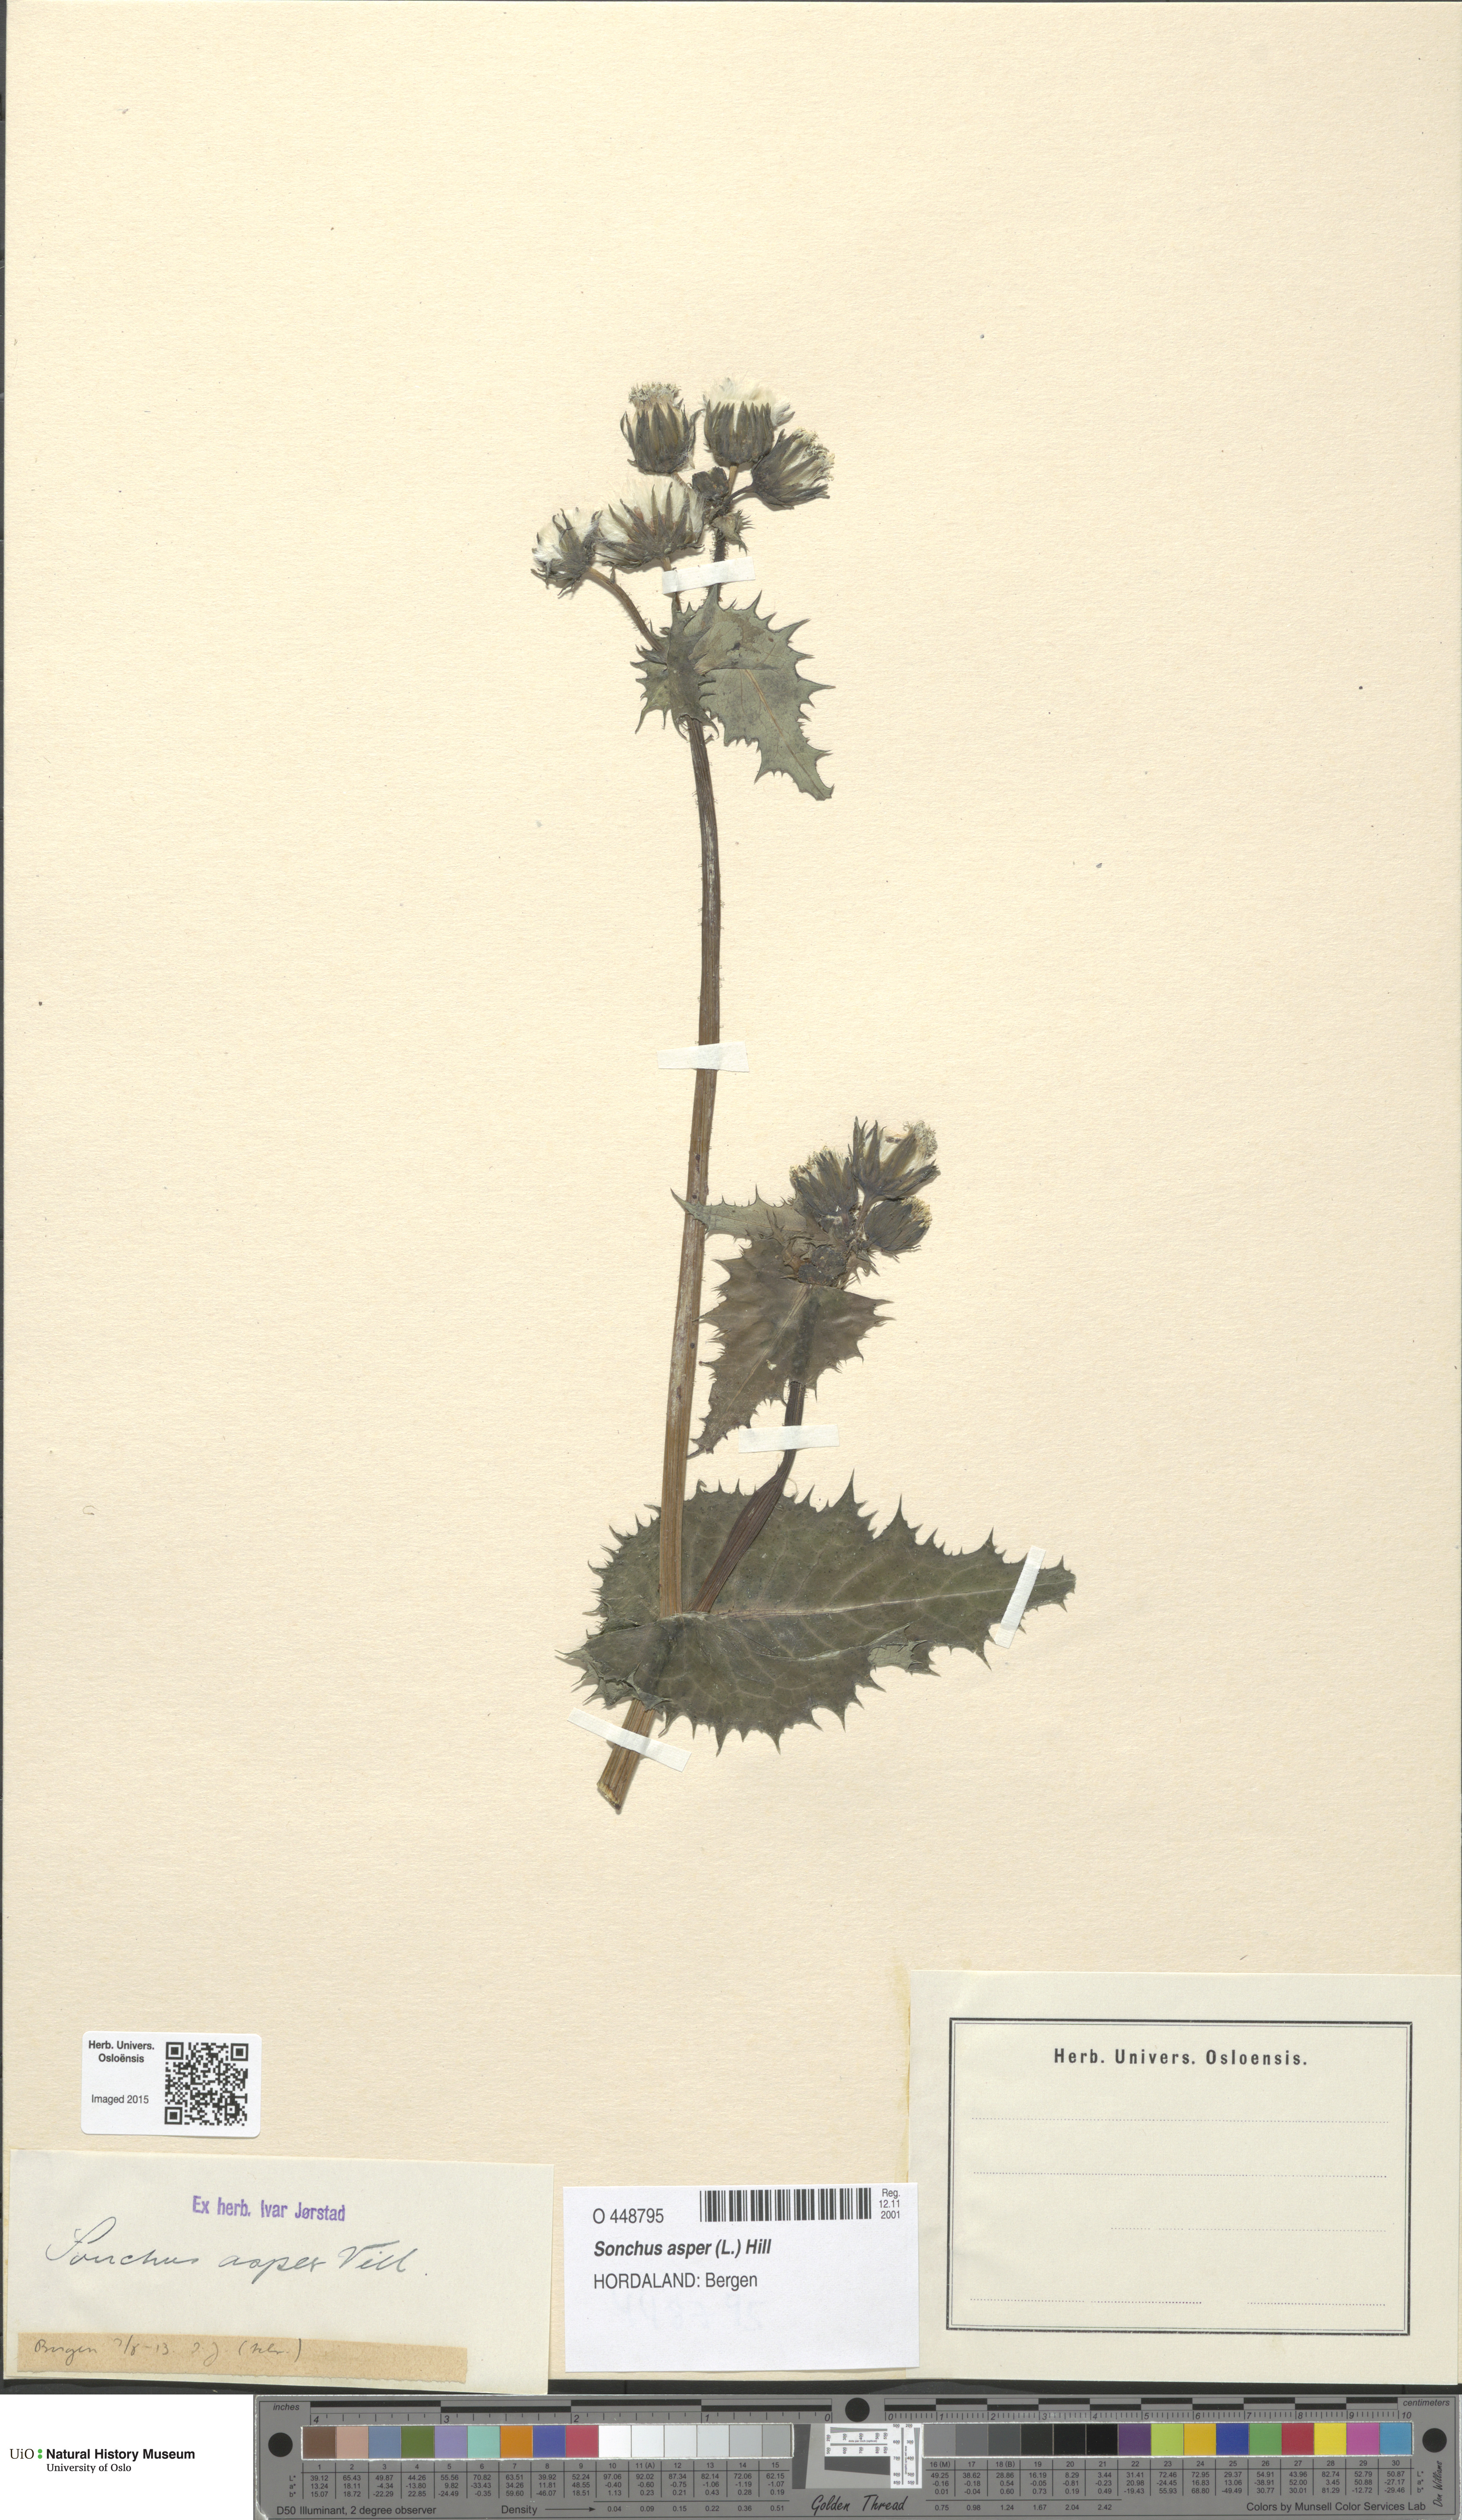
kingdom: Plantae
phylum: Tracheophyta
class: Magnoliopsida
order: Asterales
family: Asteraceae
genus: Sonchus
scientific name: Sonchus asper
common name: Prickly sow-thistle
